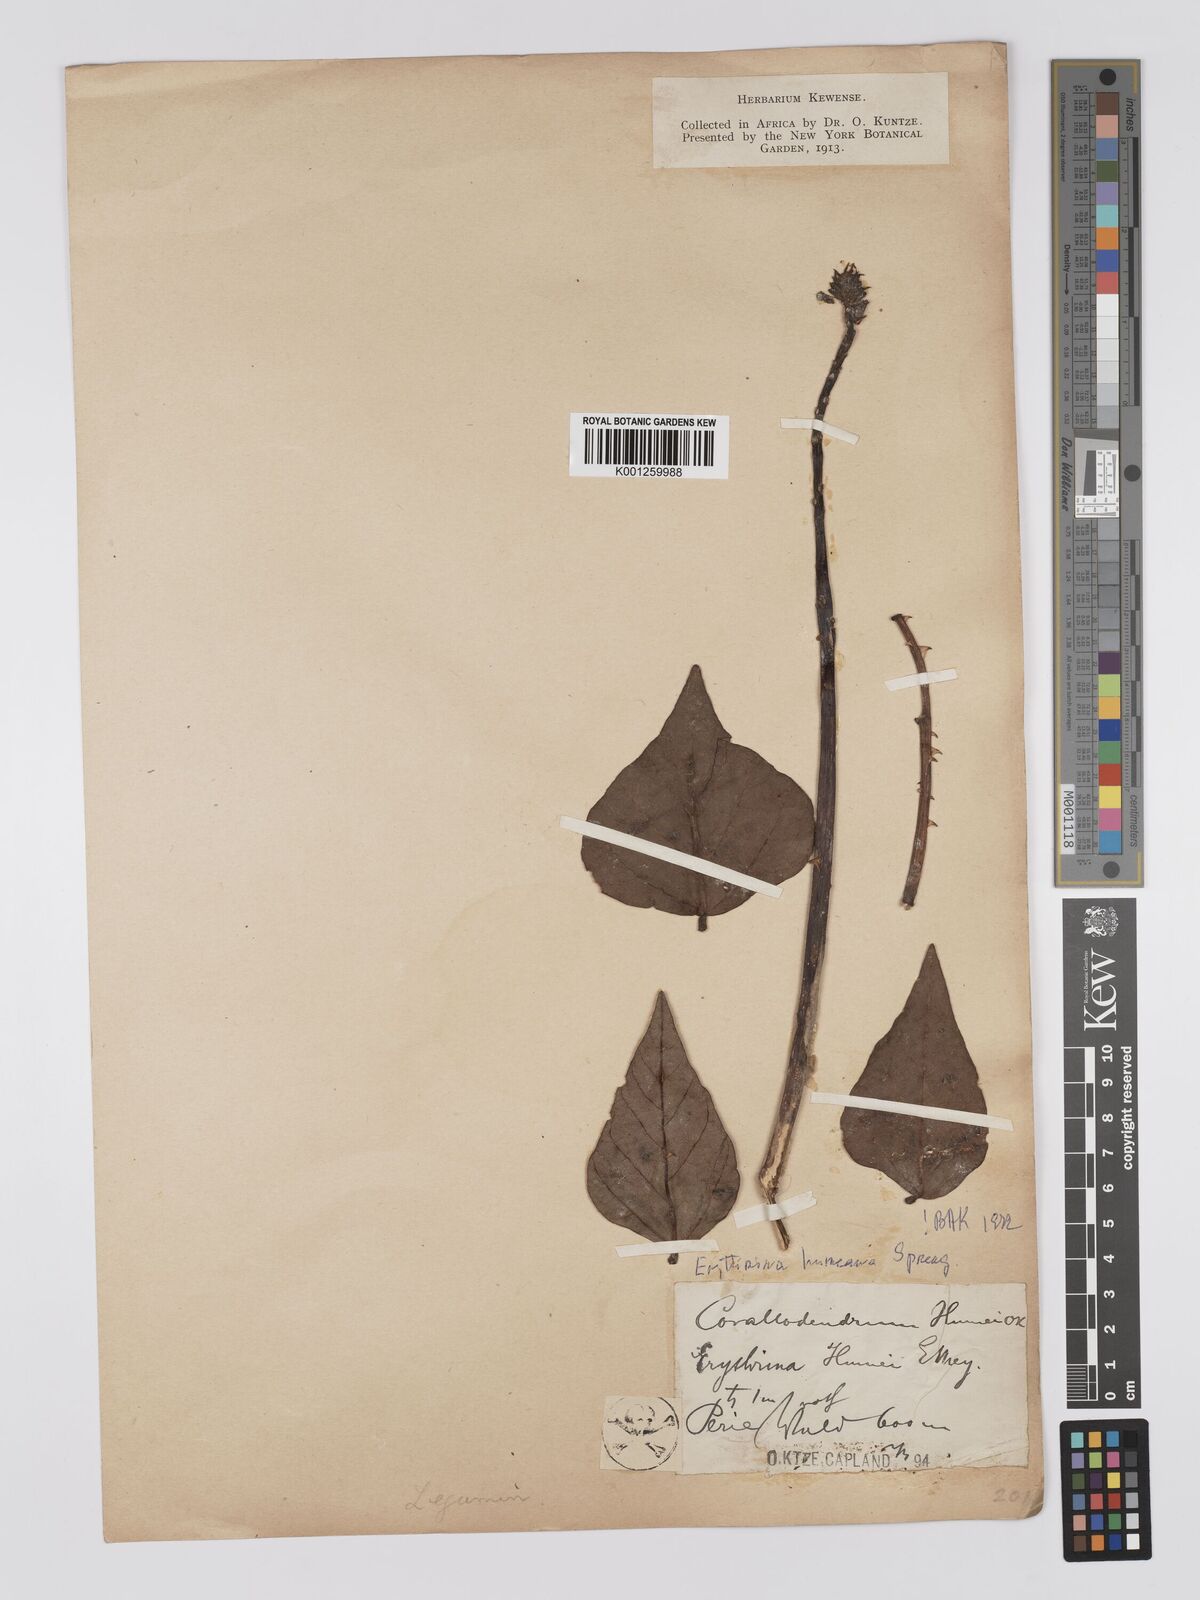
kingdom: Plantae
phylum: Tracheophyta
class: Magnoliopsida
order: Fabales
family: Fabaceae
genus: Erythrina
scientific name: Erythrina humeana
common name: Dwarf coral tree
